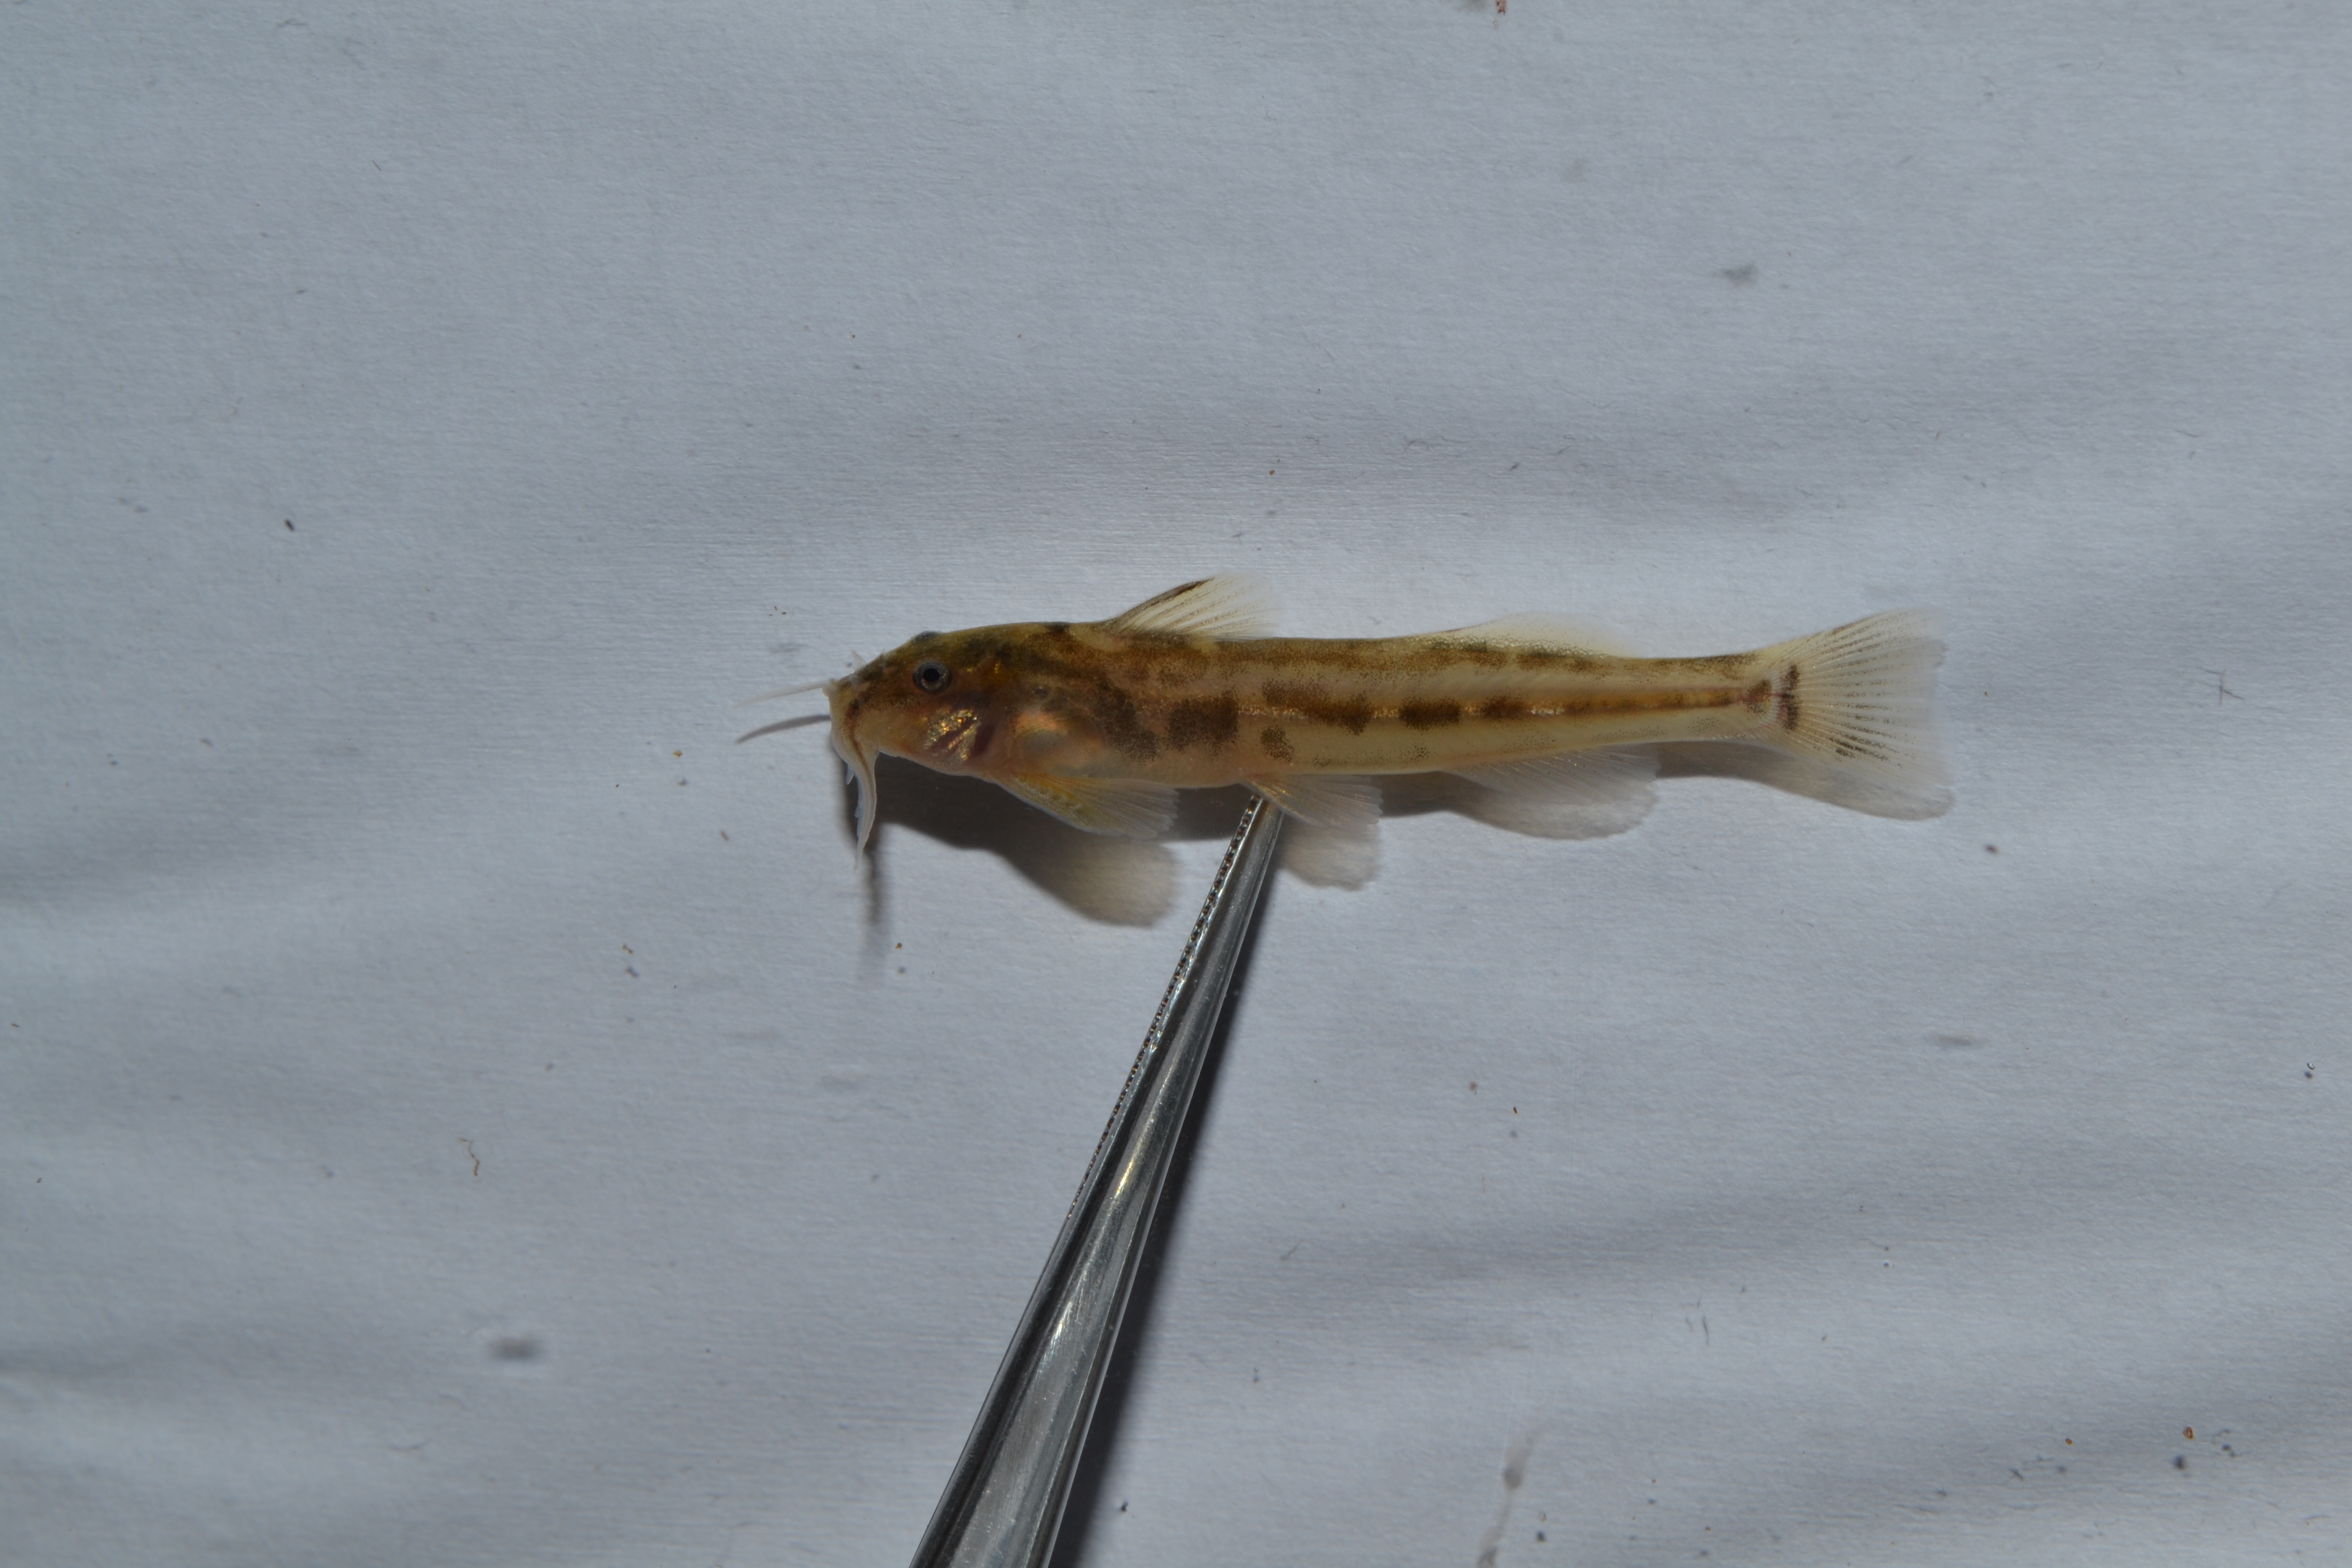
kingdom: Animalia
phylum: Chordata
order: Siluriformes
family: Amphiliidae
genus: Zaireichthys
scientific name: Zaireichthys
